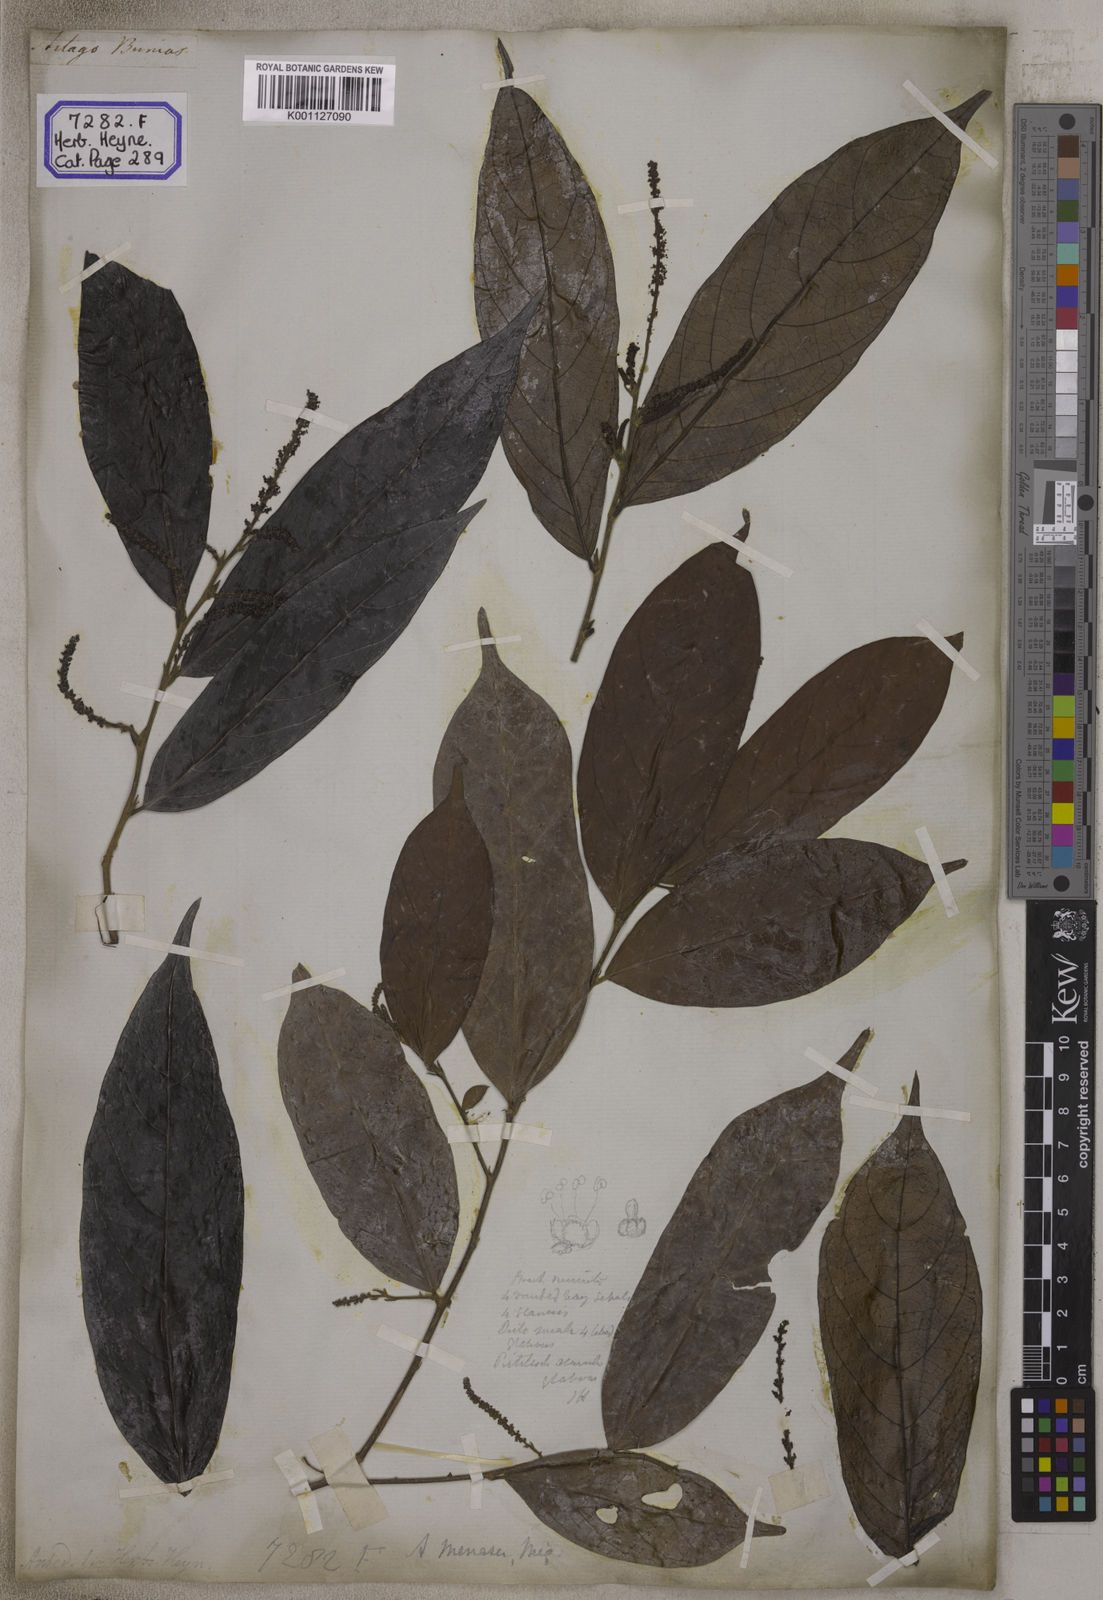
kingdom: Plantae
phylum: Tracheophyta
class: Magnoliopsida
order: Malpighiales
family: Phyllanthaceae
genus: Antidesma
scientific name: Antidesma nigricans
